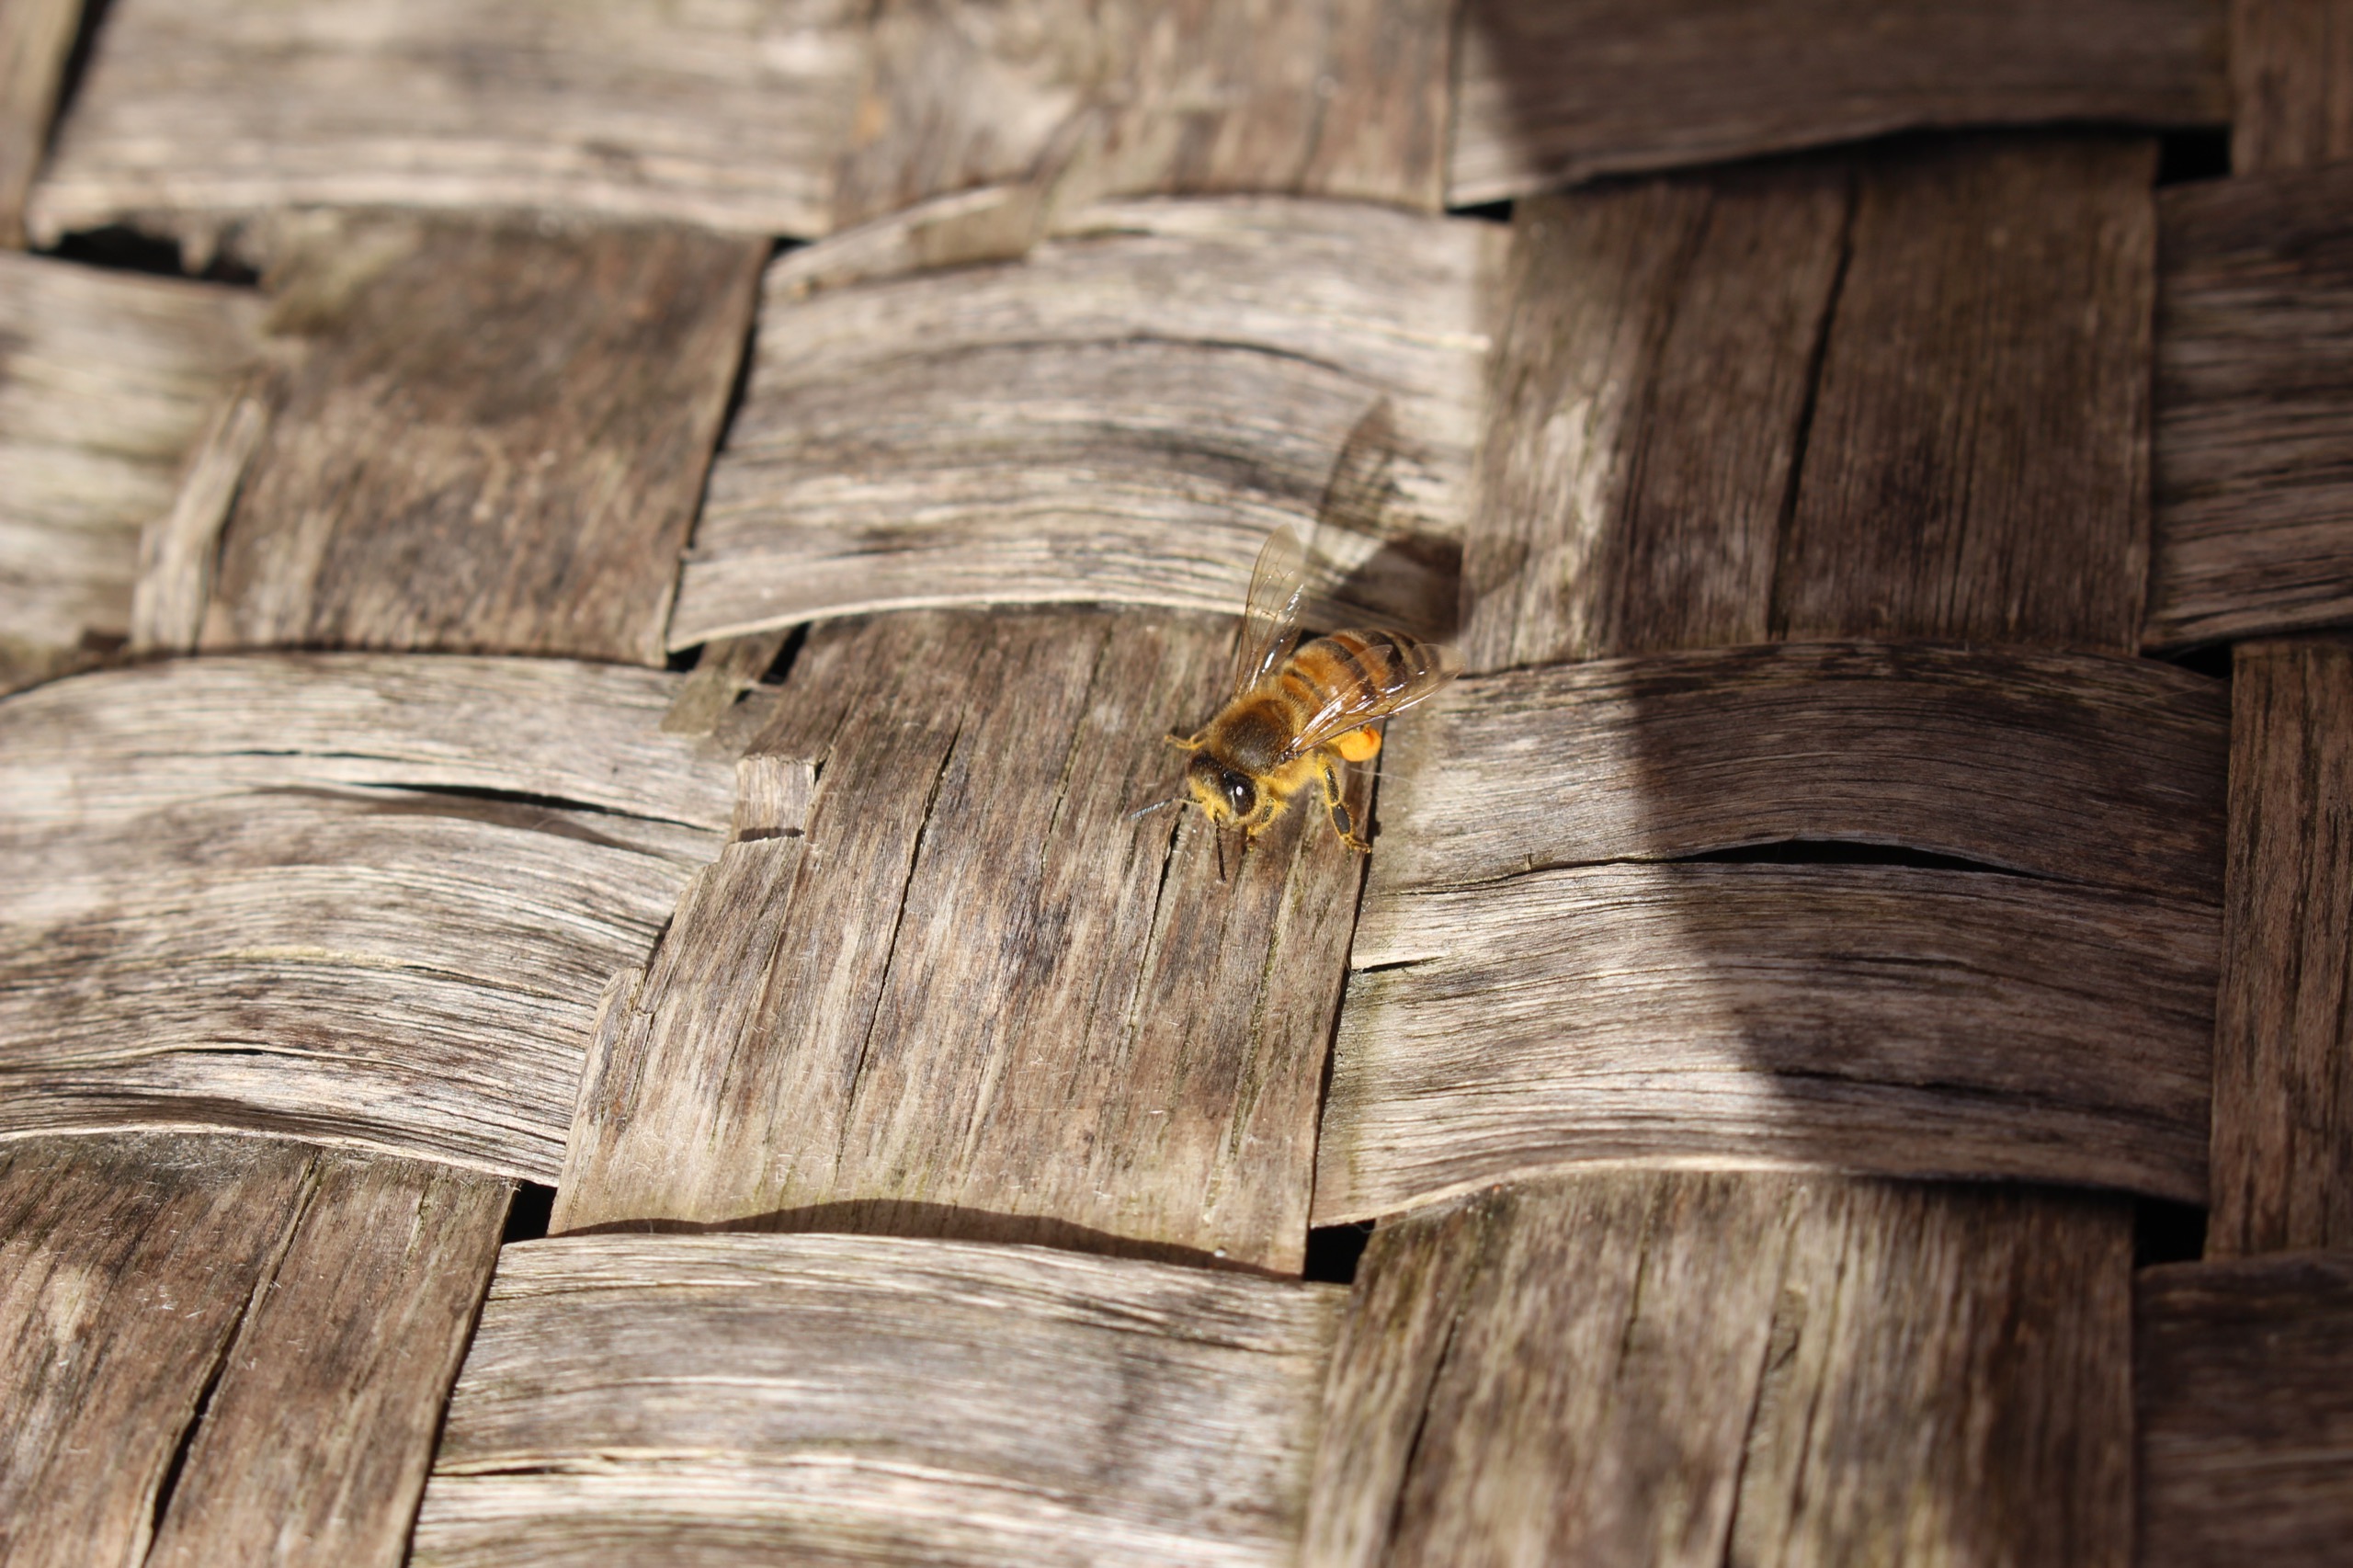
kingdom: Animalia
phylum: Arthropoda
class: Insecta
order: Hymenoptera
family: Apidae
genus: Apis
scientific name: Apis mellifera
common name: Honningbi
